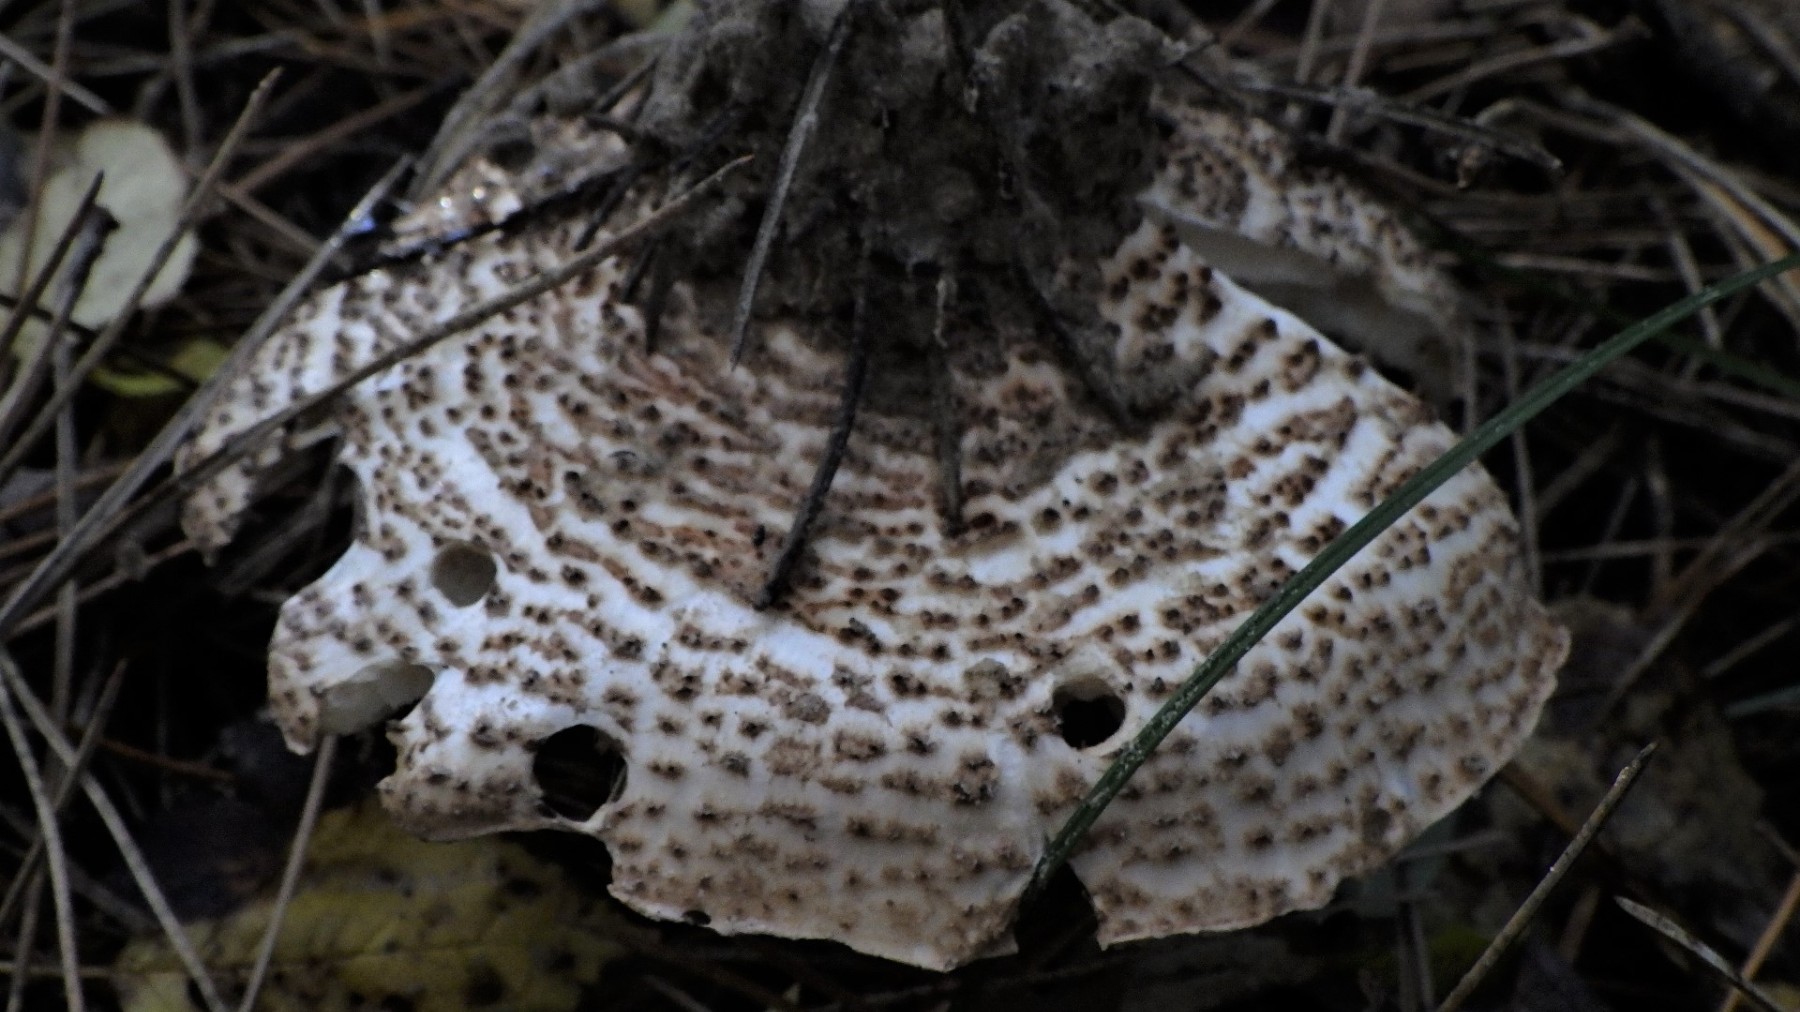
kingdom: Fungi
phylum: Basidiomycota
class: Agaricomycetes
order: Agaricales
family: Agaricaceae
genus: Echinoderma
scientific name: Echinoderma asperum
